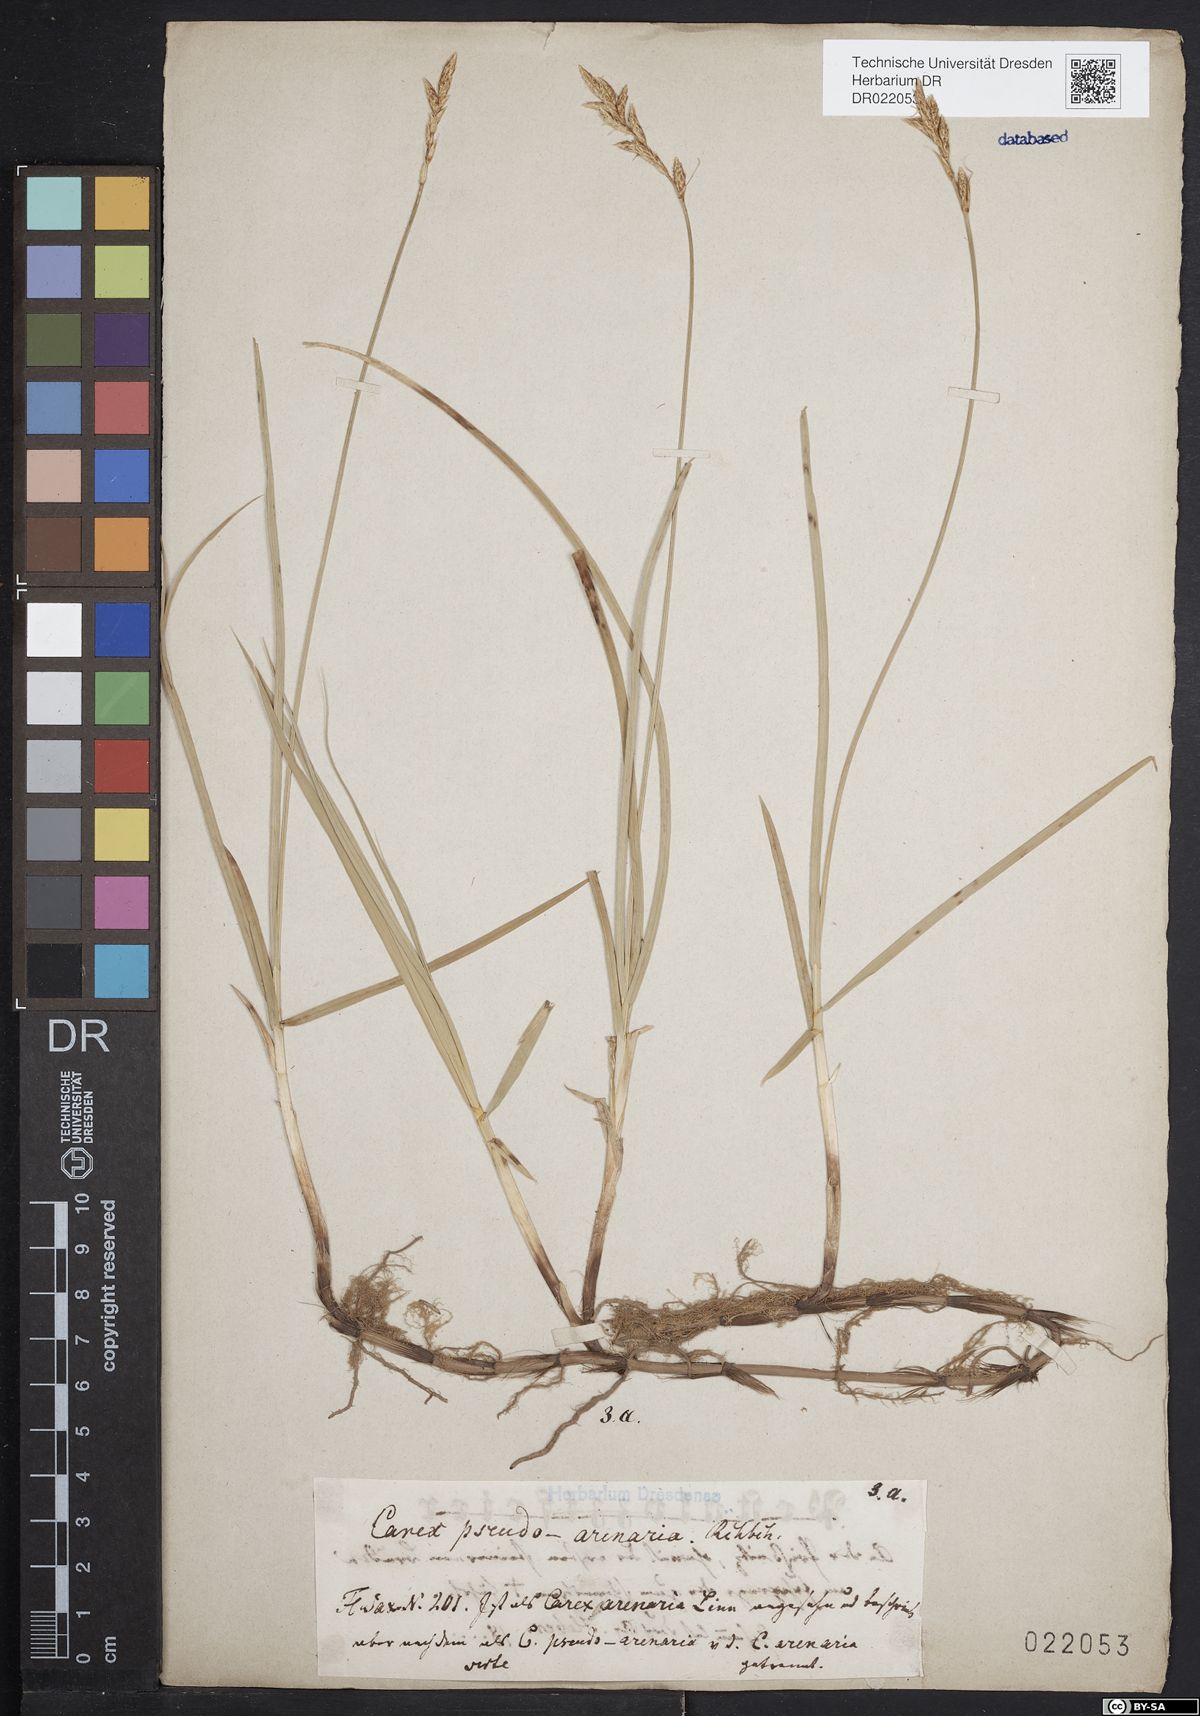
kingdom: Plantae
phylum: Tracheophyta
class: Liliopsida
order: Poales
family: Cyperaceae
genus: Carex
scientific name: Carex pseudobrizoides
